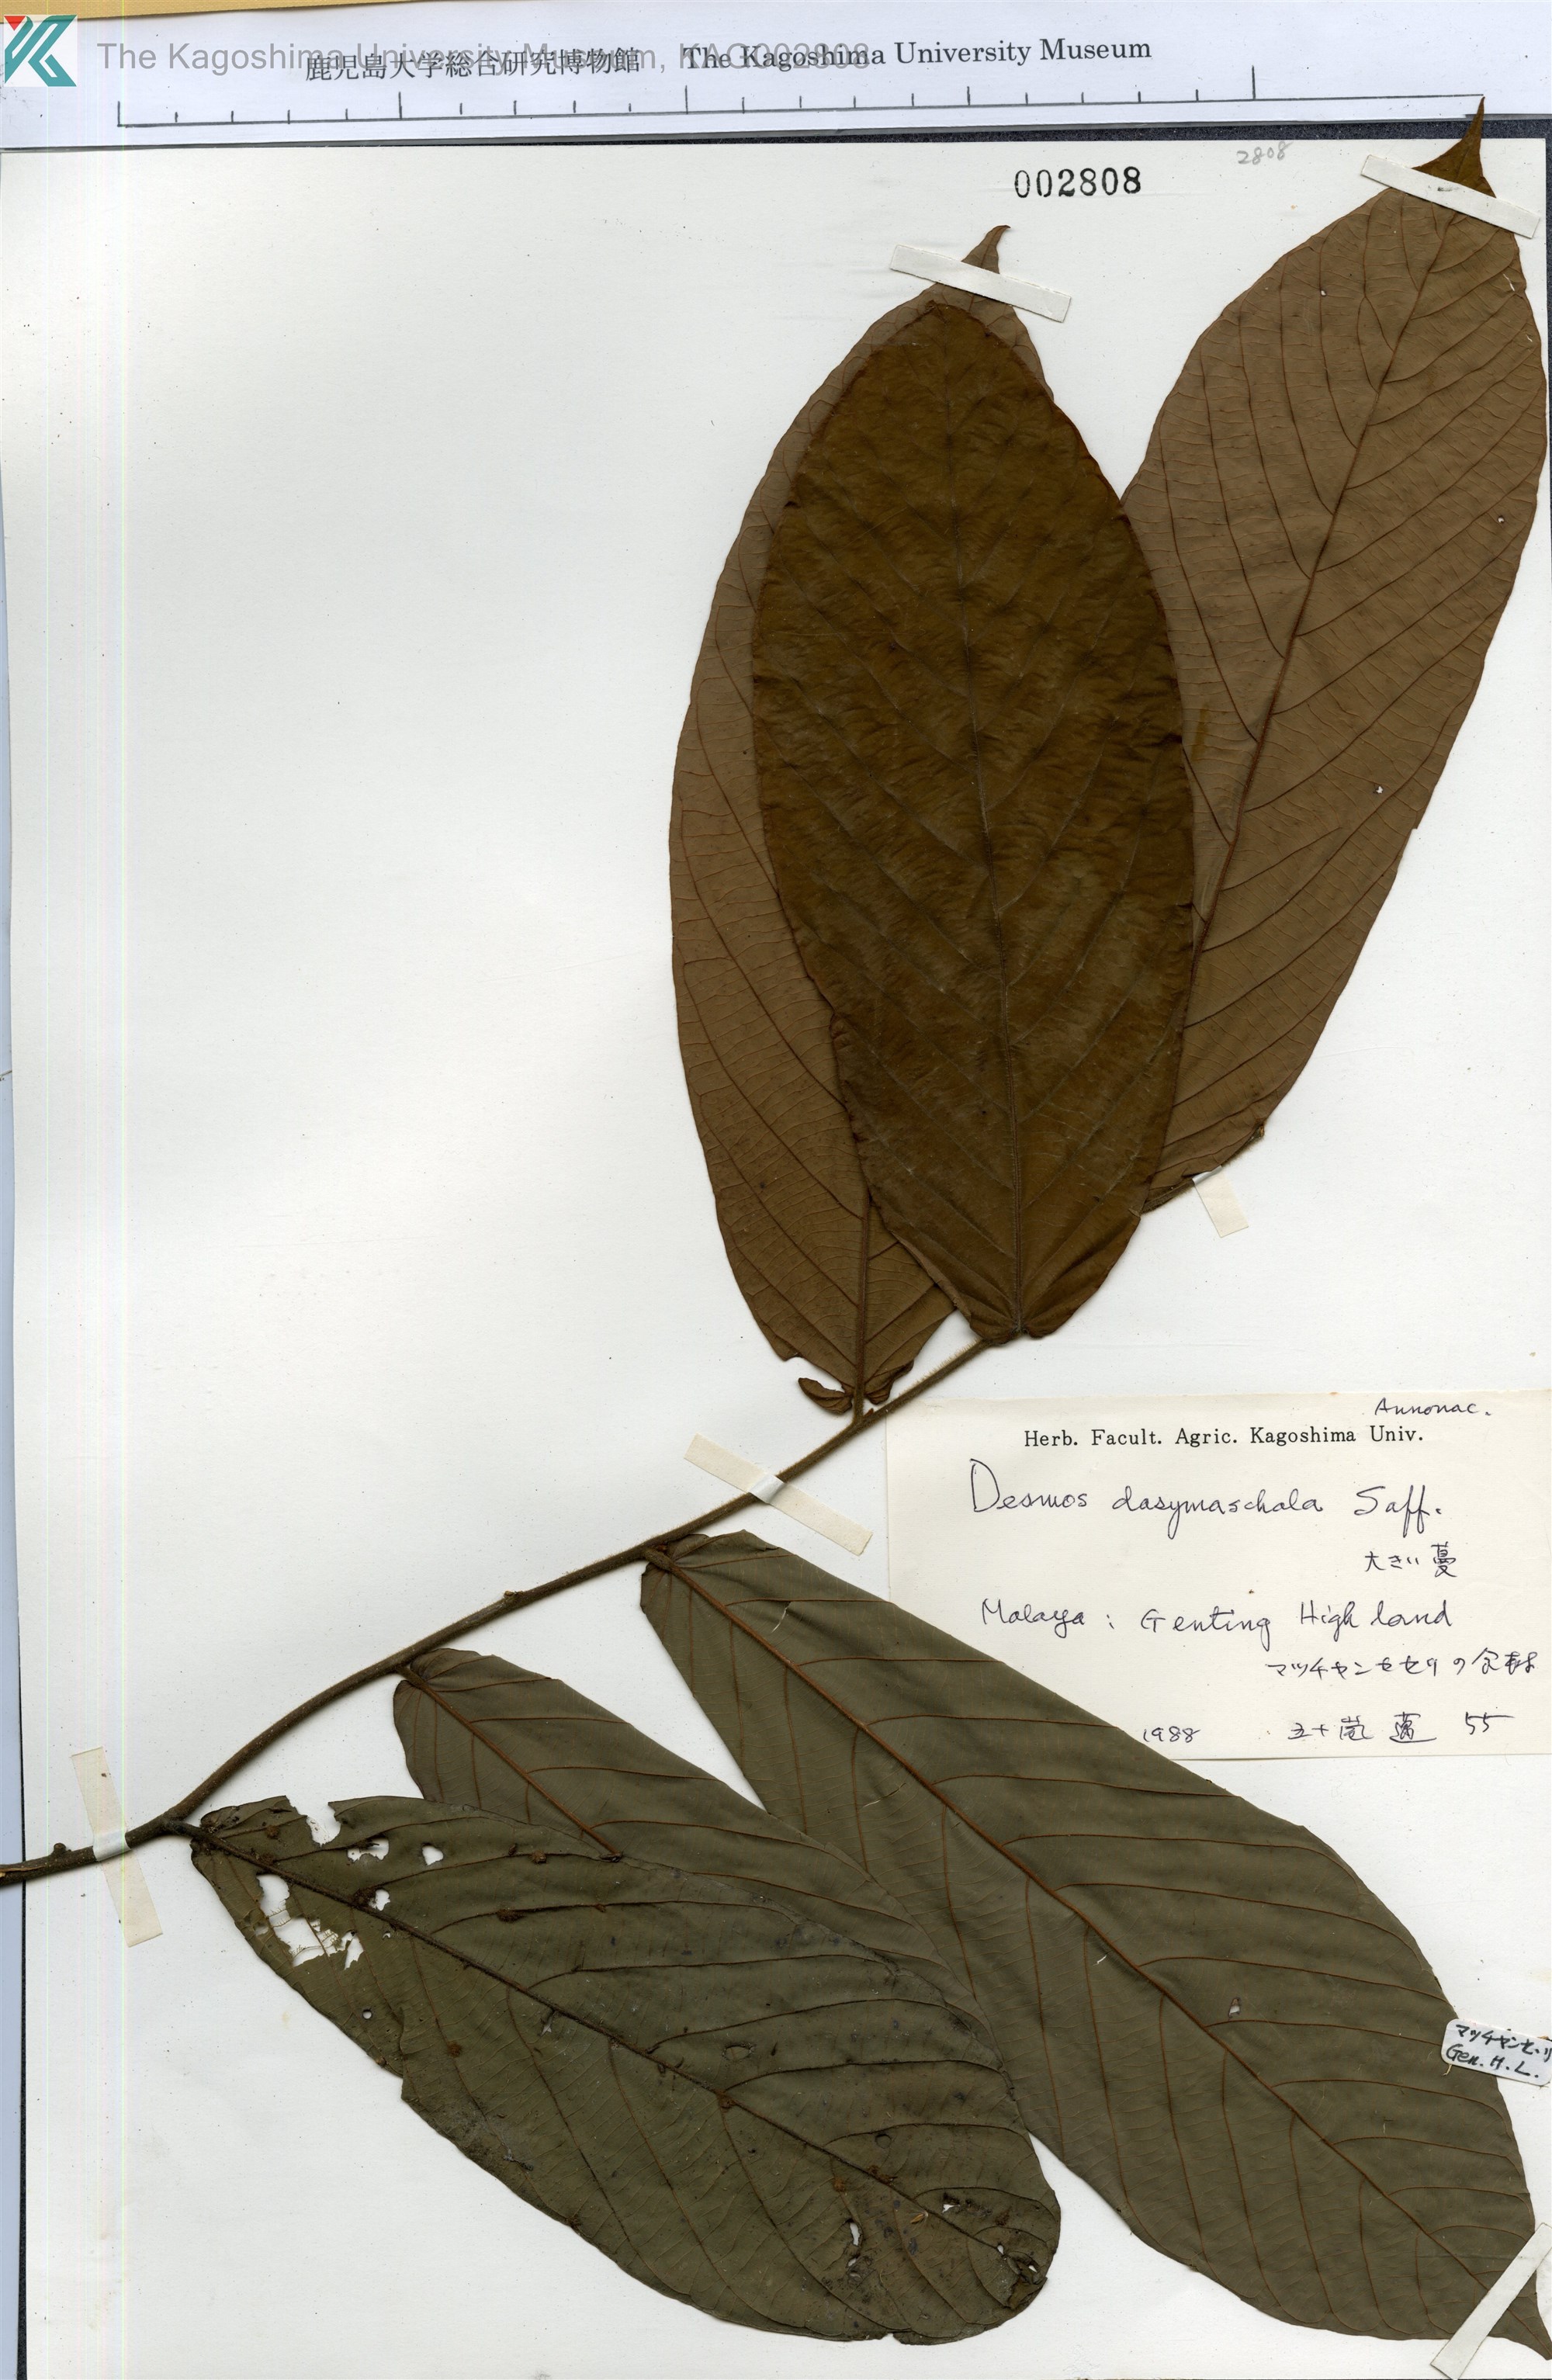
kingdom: Plantae
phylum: Tracheophyta
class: Magnoliopsida
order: Magnoliales
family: Annonaceae
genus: Dasymaschalon
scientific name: Dasymaschalon dasymaschalum
